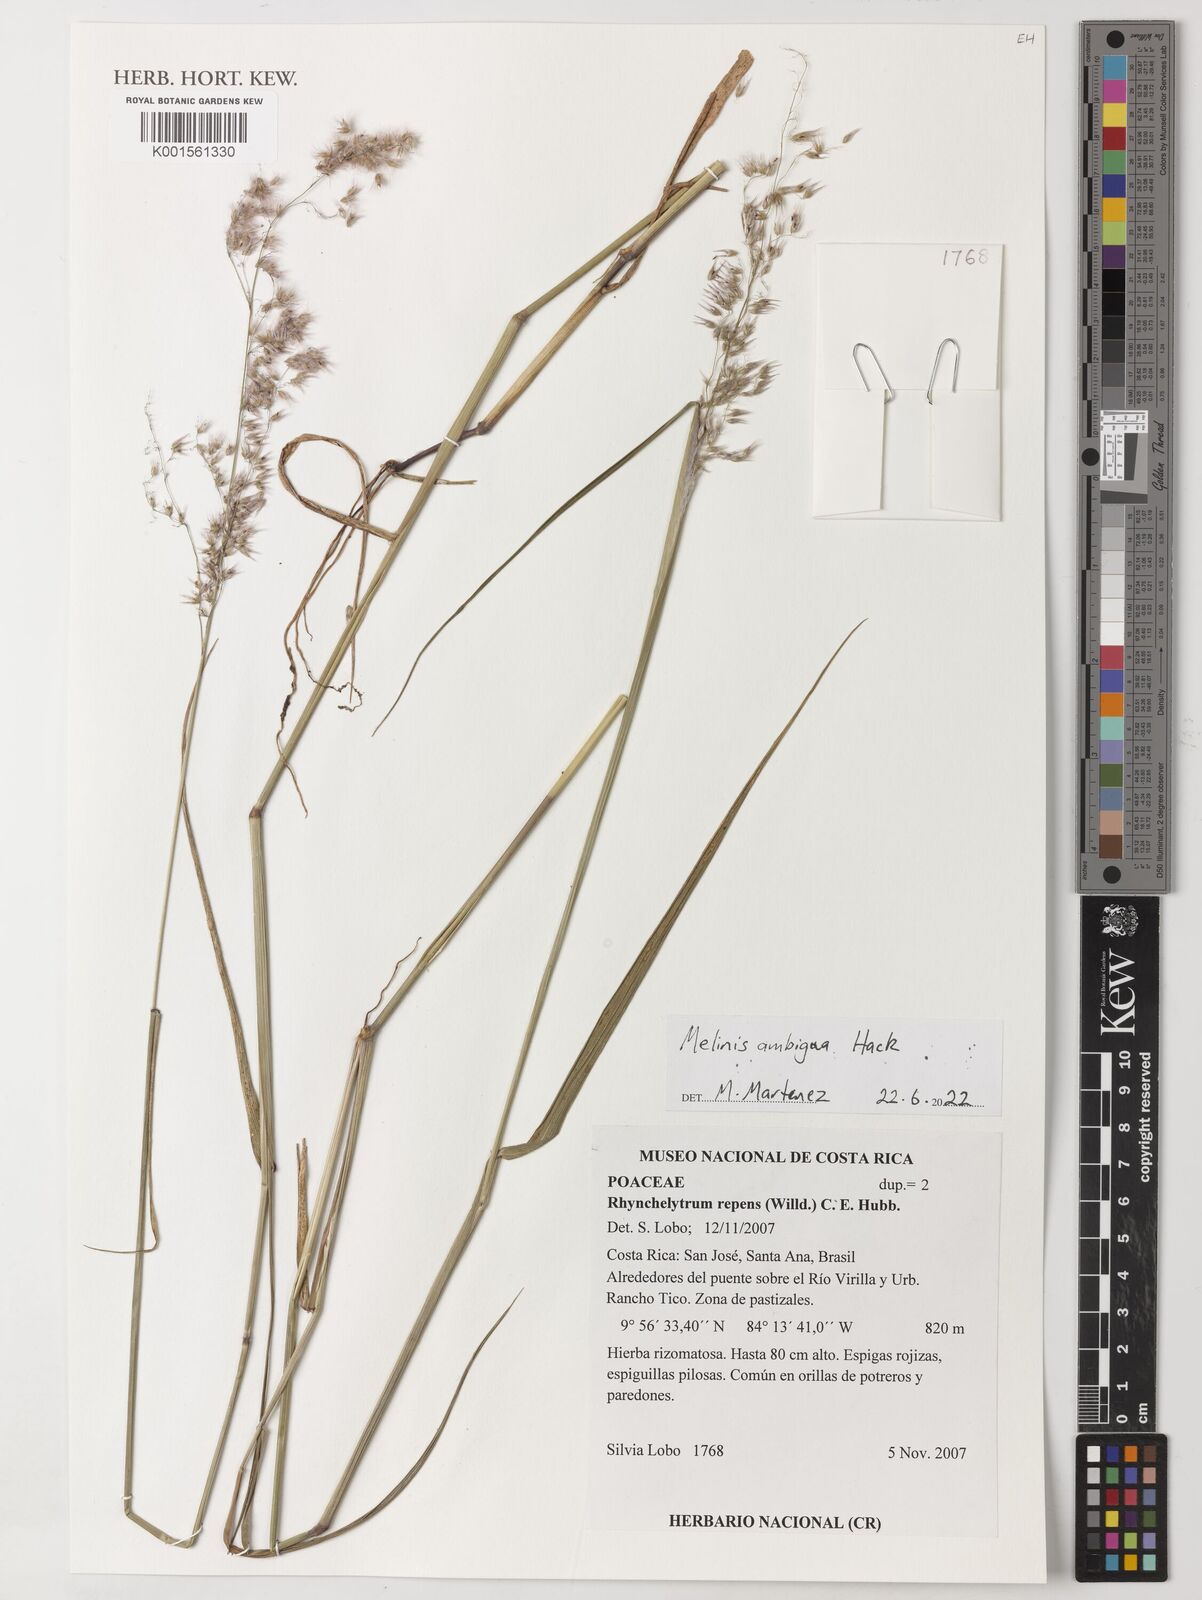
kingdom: Plantae
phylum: Tracheophyta
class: Liliopsida
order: Poales
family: Poaceae
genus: Melinis
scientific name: Melinis repens
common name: Rose natal grass
